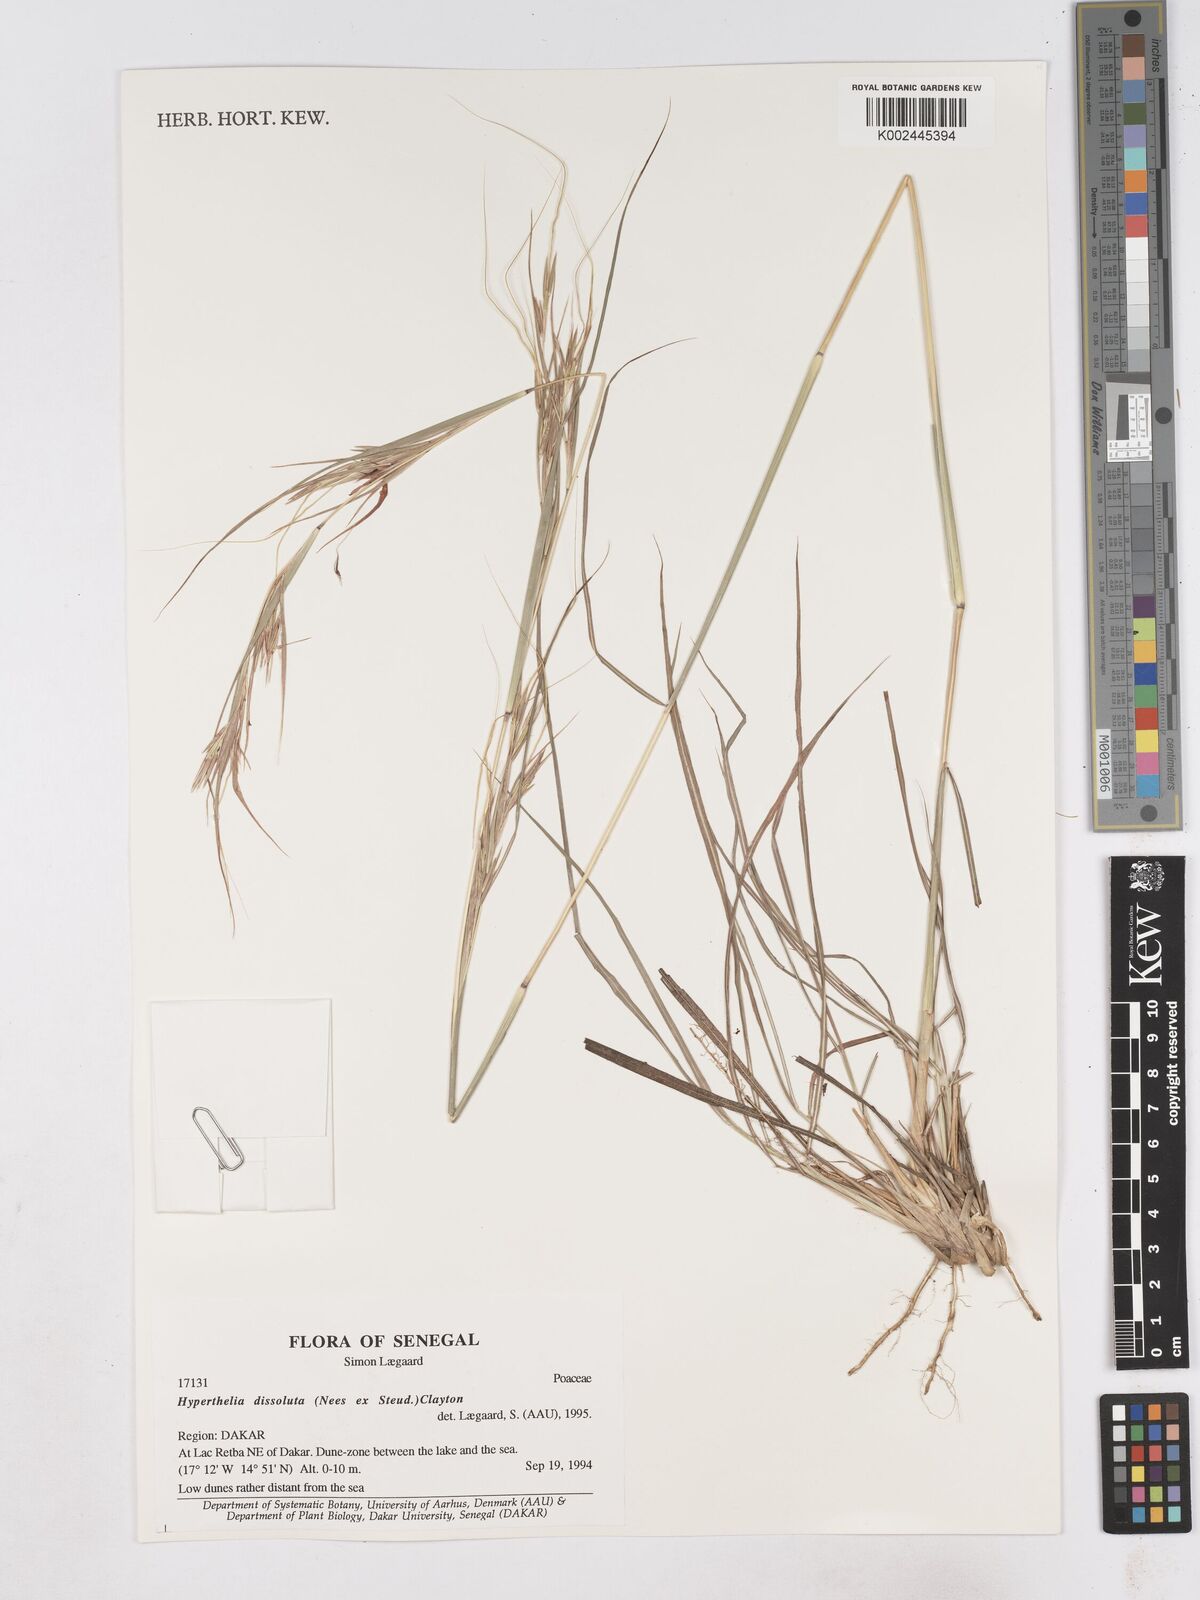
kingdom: Plantae
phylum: Tracheophyta
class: Liliopsida
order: Poales
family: Poaceae
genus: Hyperthelia
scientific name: Hyperthelia dissoluta
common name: Yellow thatching grass
